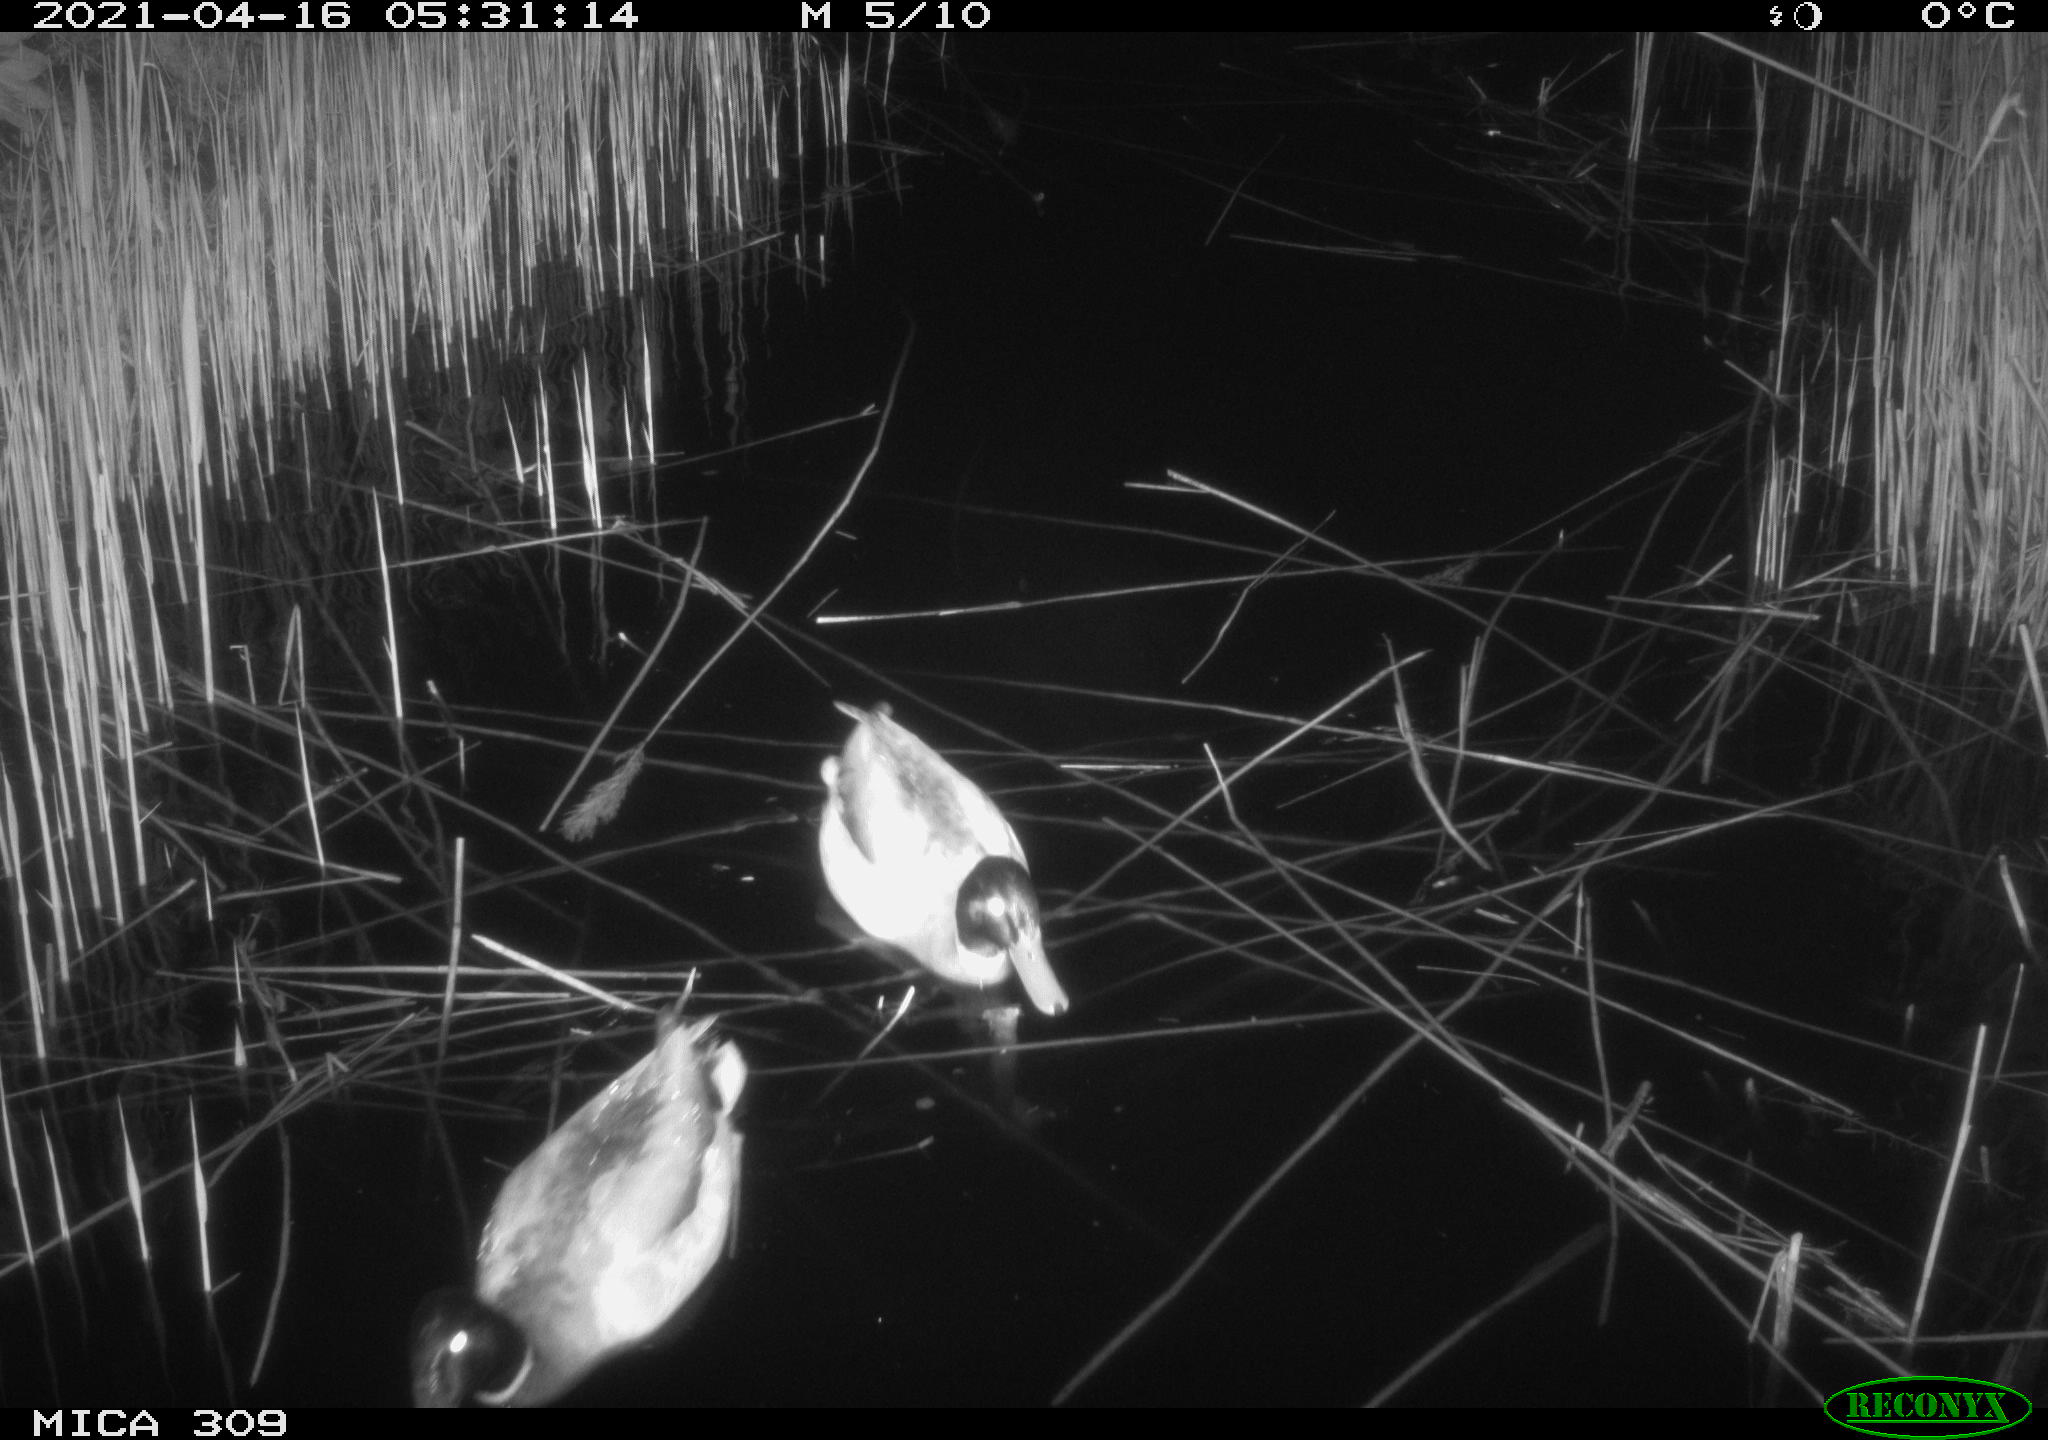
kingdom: Animalia
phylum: Chordata
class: Aves
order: Anseriformes
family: Anatidae
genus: Anas
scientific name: Anas platyrhynchos
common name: Mallard
